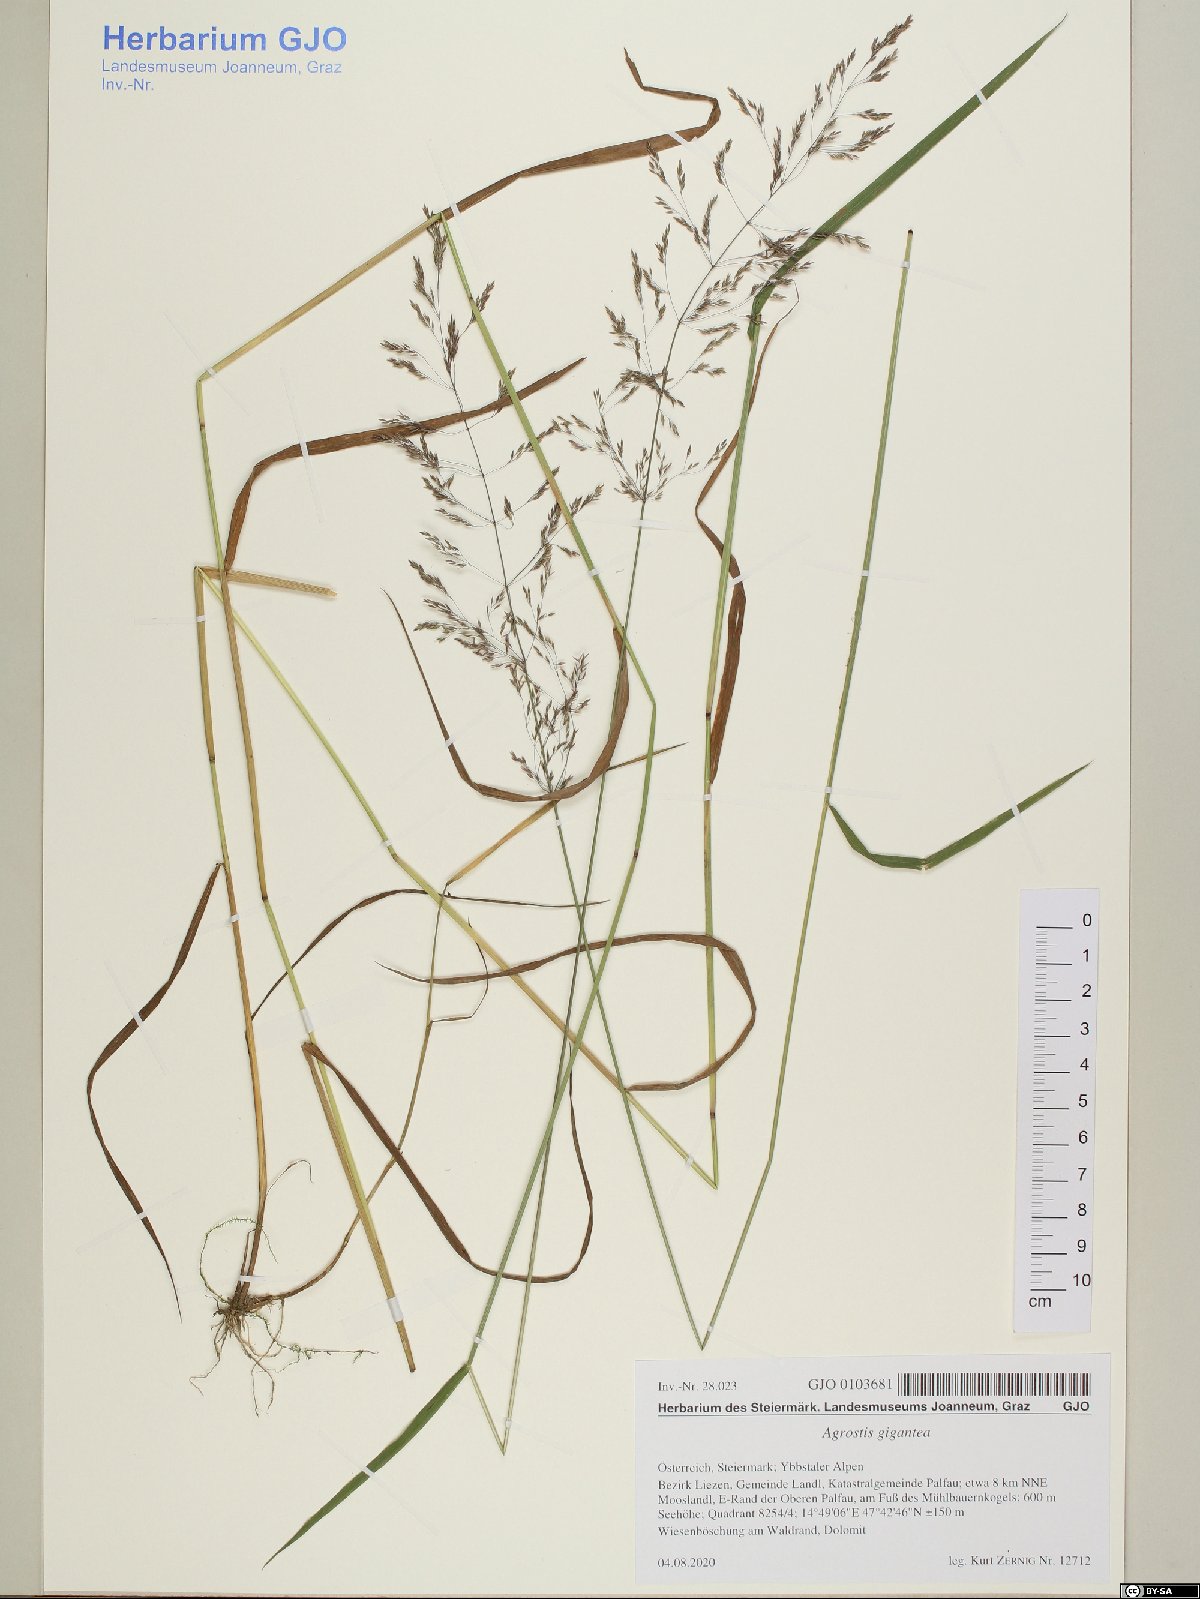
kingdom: Plantae
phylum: Tracheophyta
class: Liliopsida
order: Poales
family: Poaceae
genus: Agrostis
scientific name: Agrostis gigantea
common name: Black bent
